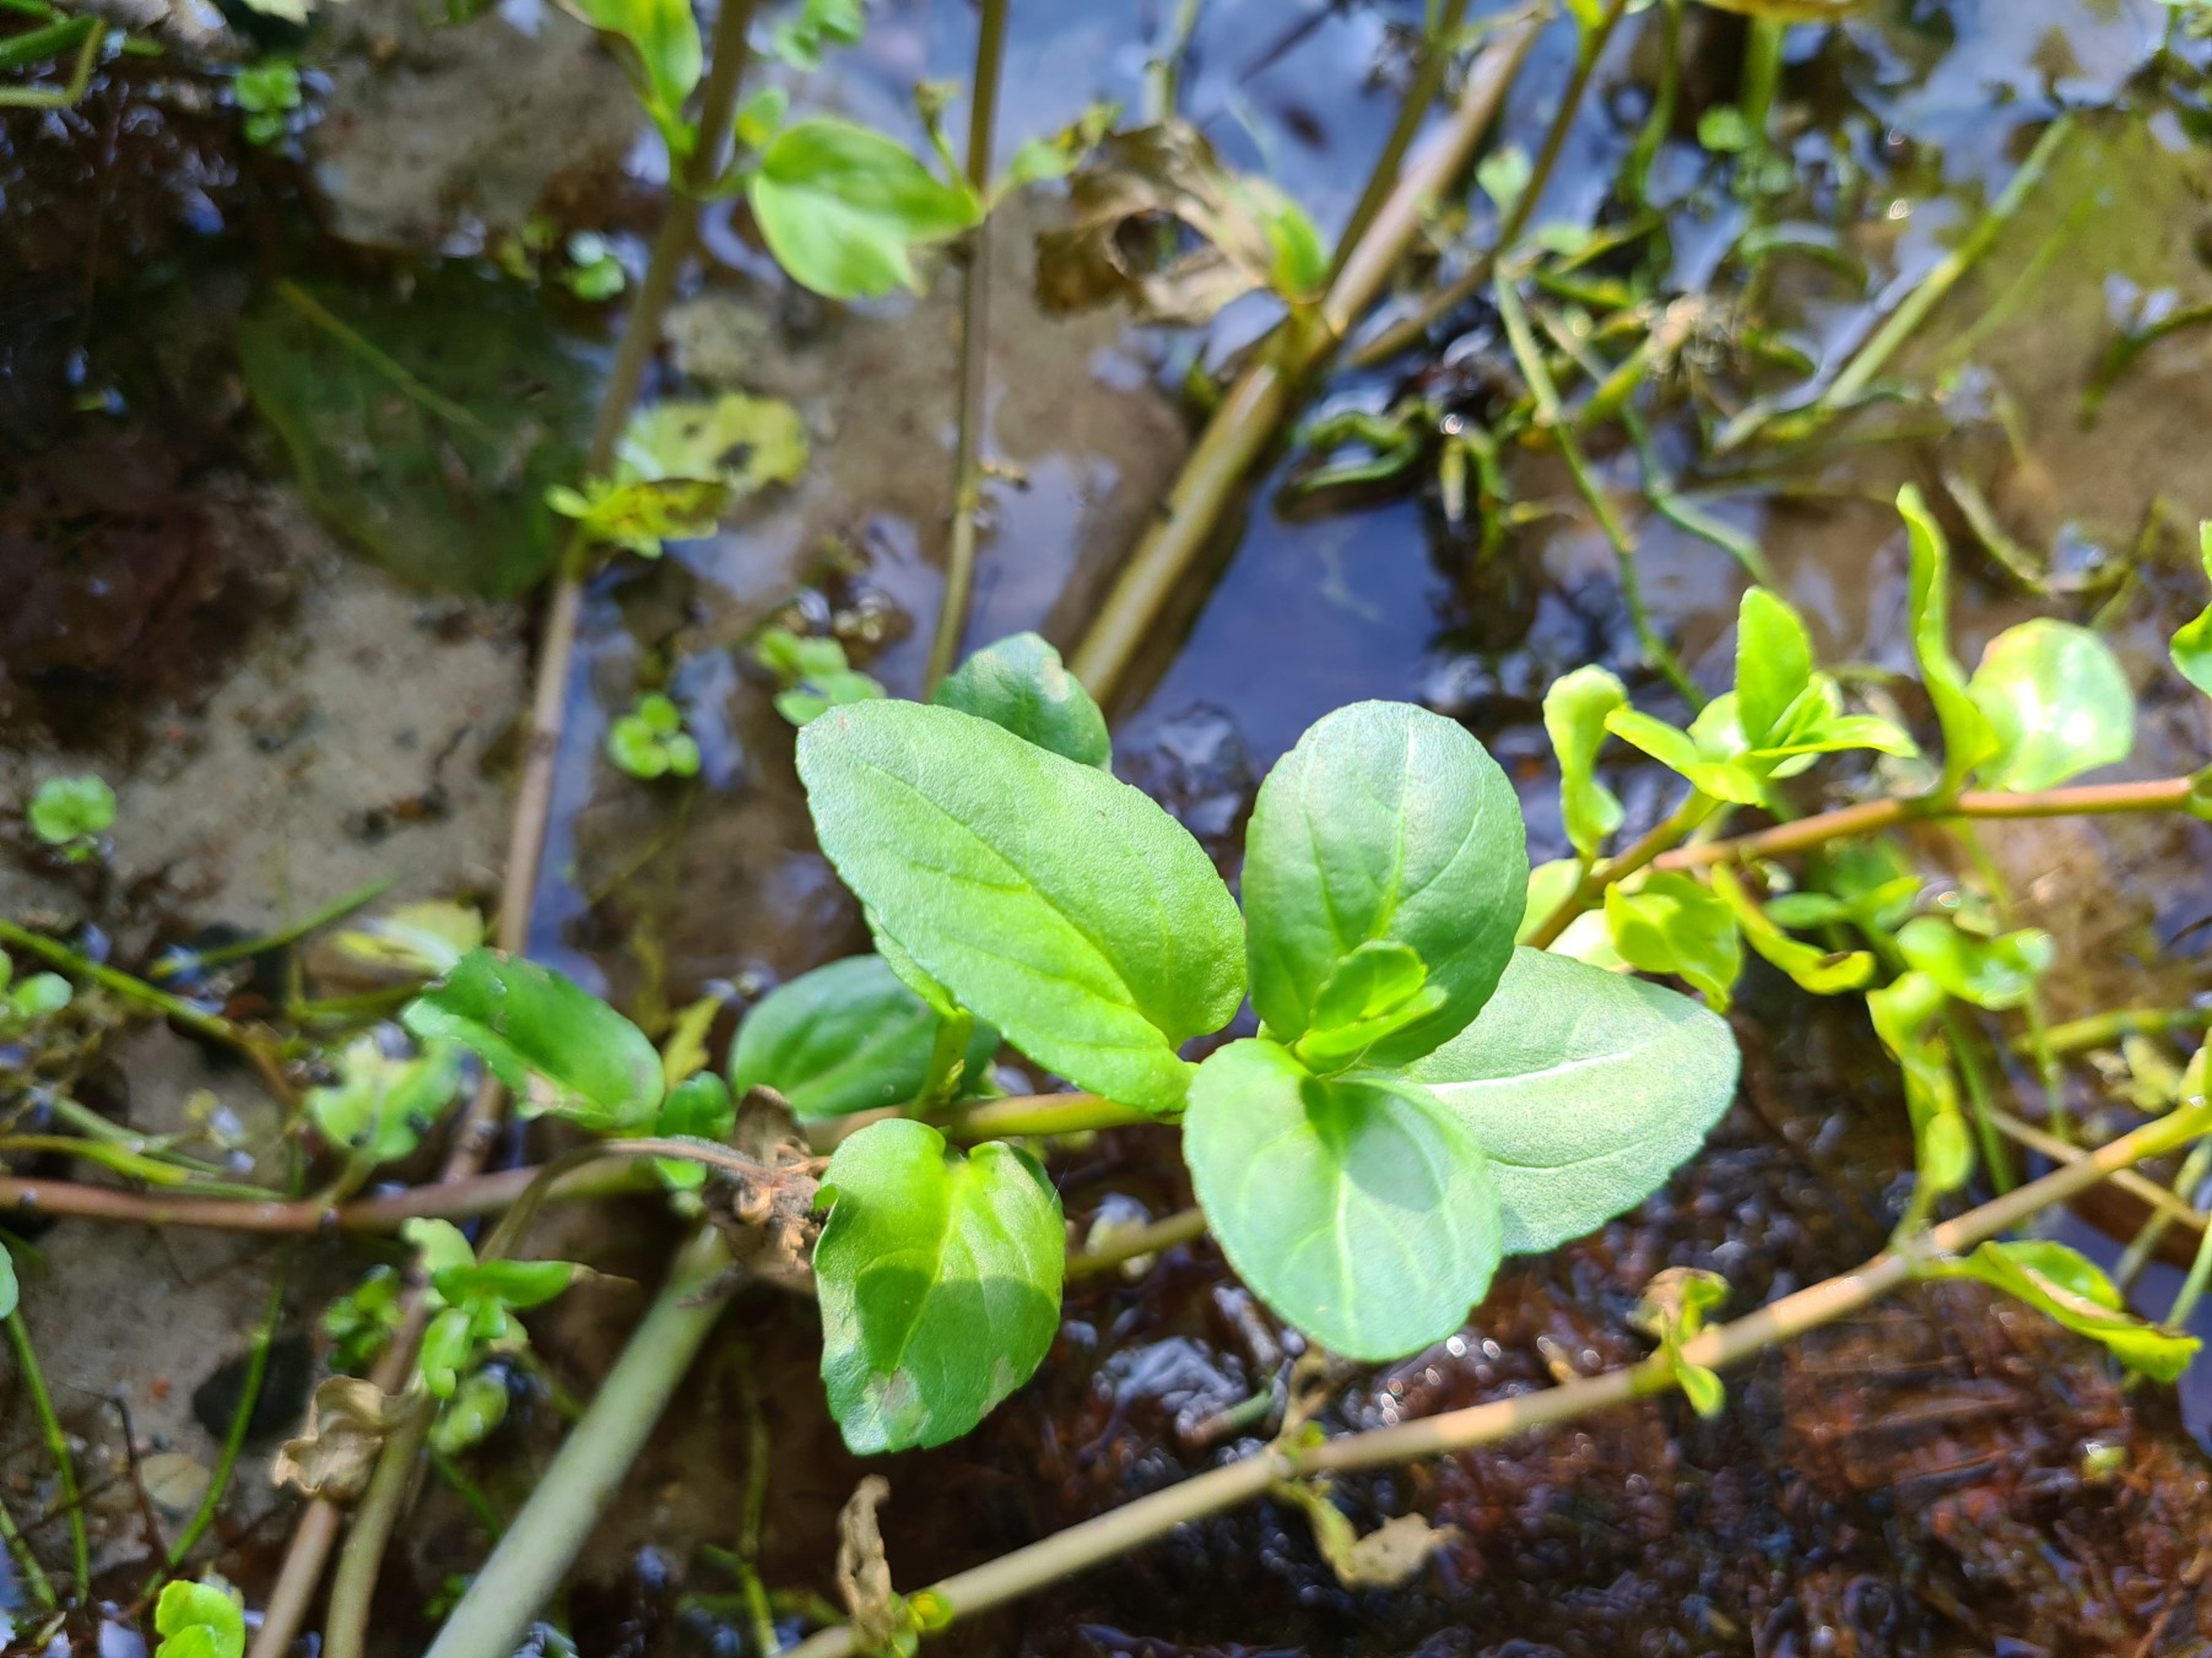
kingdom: Plantae
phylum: Tracheophyta
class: Magnoliopsida
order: Lamiales
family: Plantaginaceae
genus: Veronica
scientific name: Veronica beccabunga
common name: Tykbladet ærenpris
